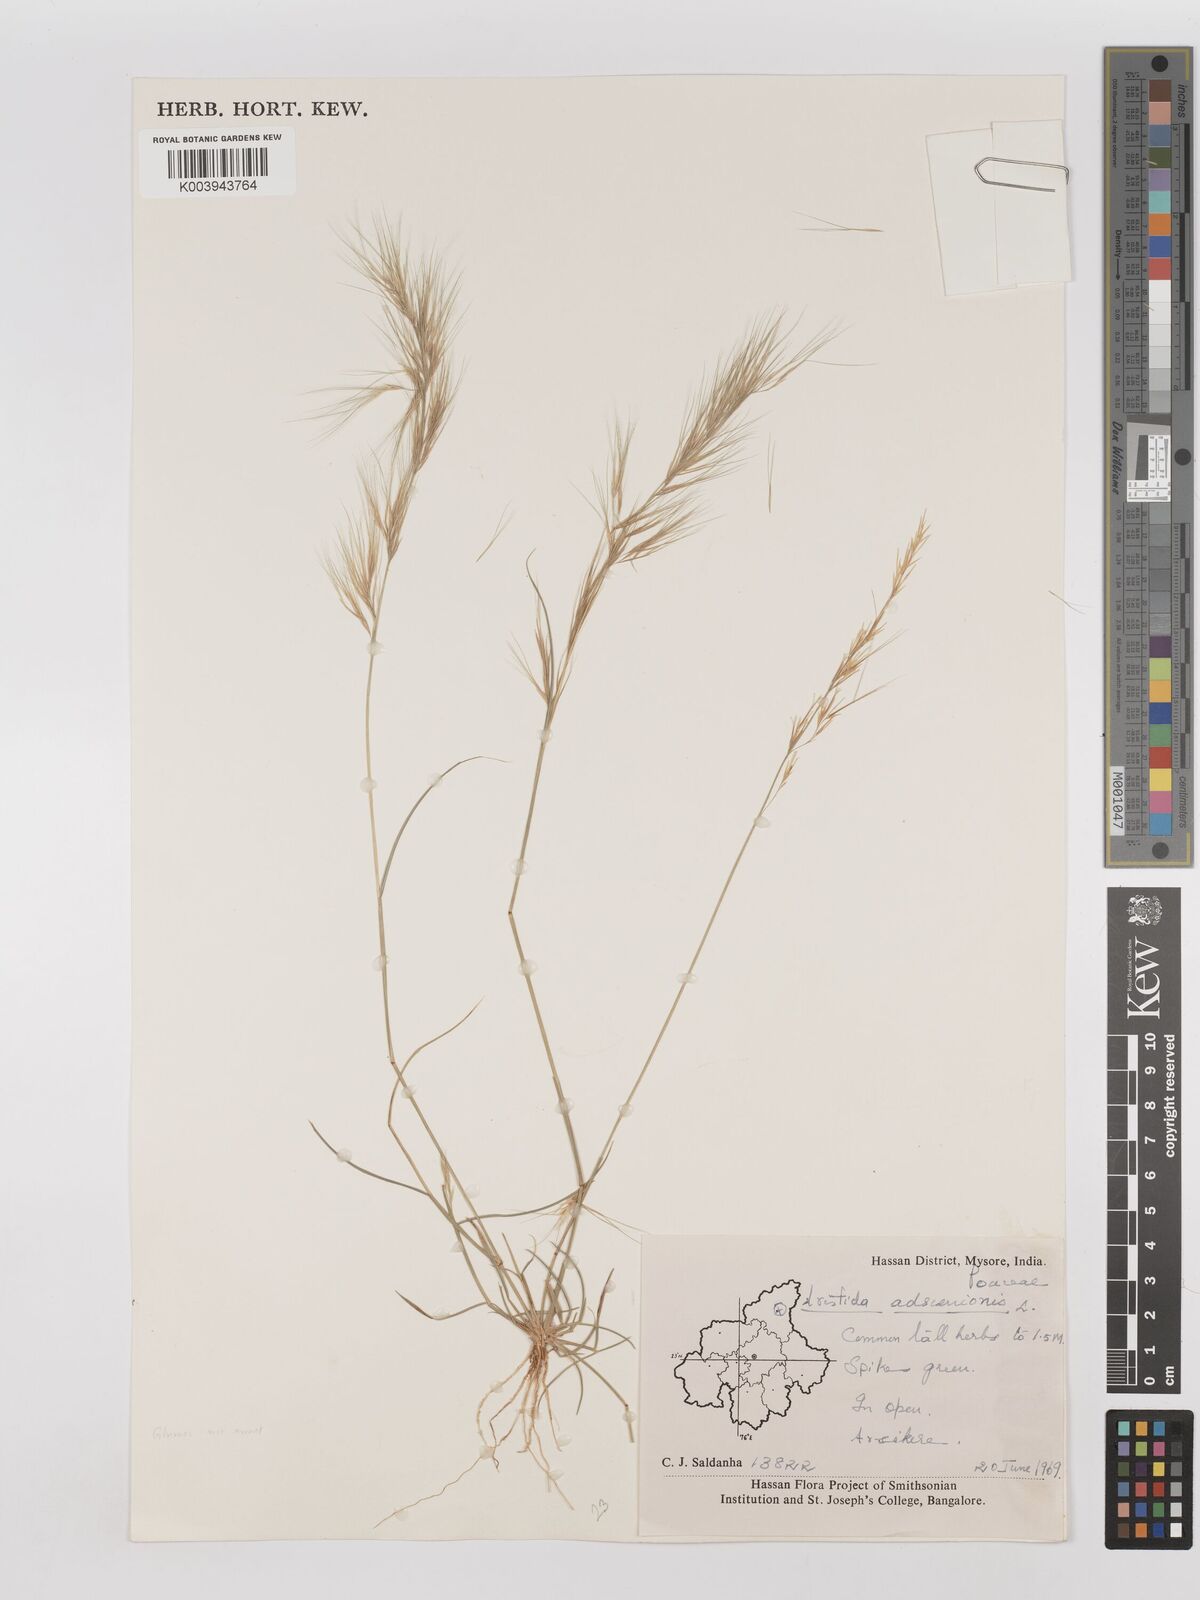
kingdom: Plantae
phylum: Tracheophyta
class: Liliopsida
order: Poales
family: Poaceae
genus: Aristida
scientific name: Aristida adscensionis
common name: Sixweeks threeawn
